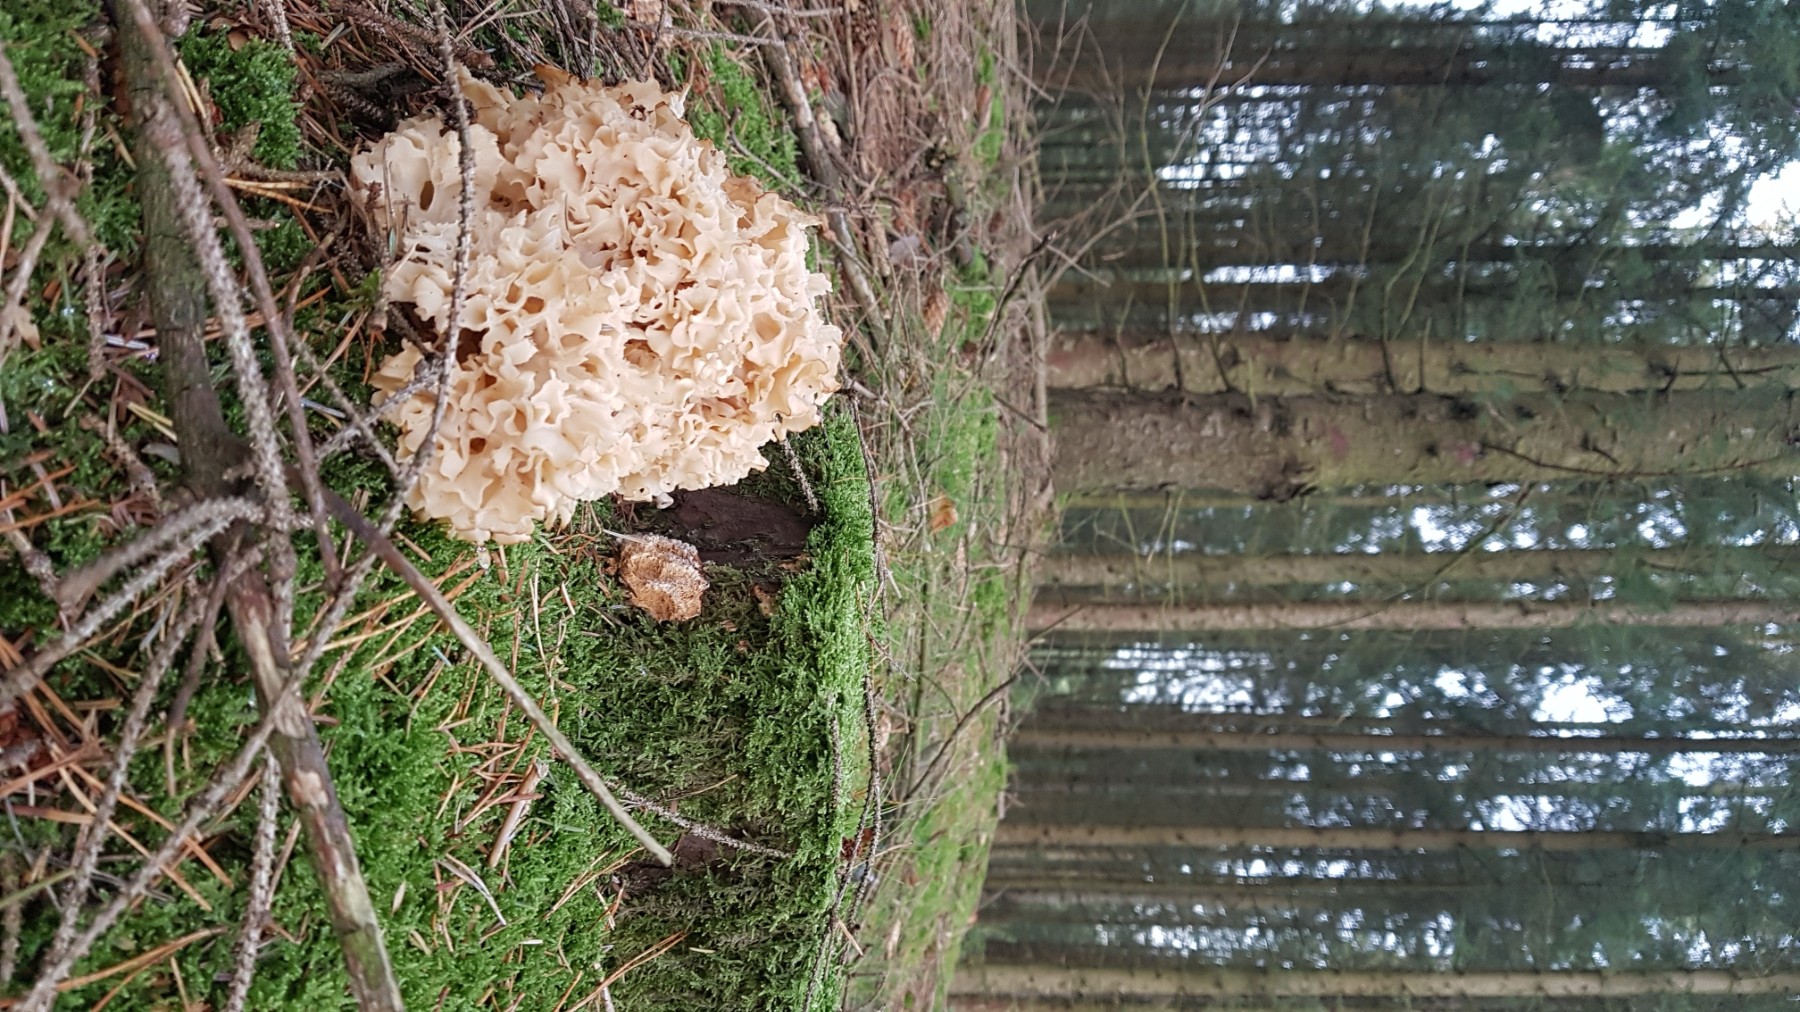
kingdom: Fungi
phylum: Basidiomycota
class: Agaricomycetes
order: Polyporales
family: Sparassidaceae
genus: Sparassis
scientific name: Sparassis crispa
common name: kruset blomkålssvamp
